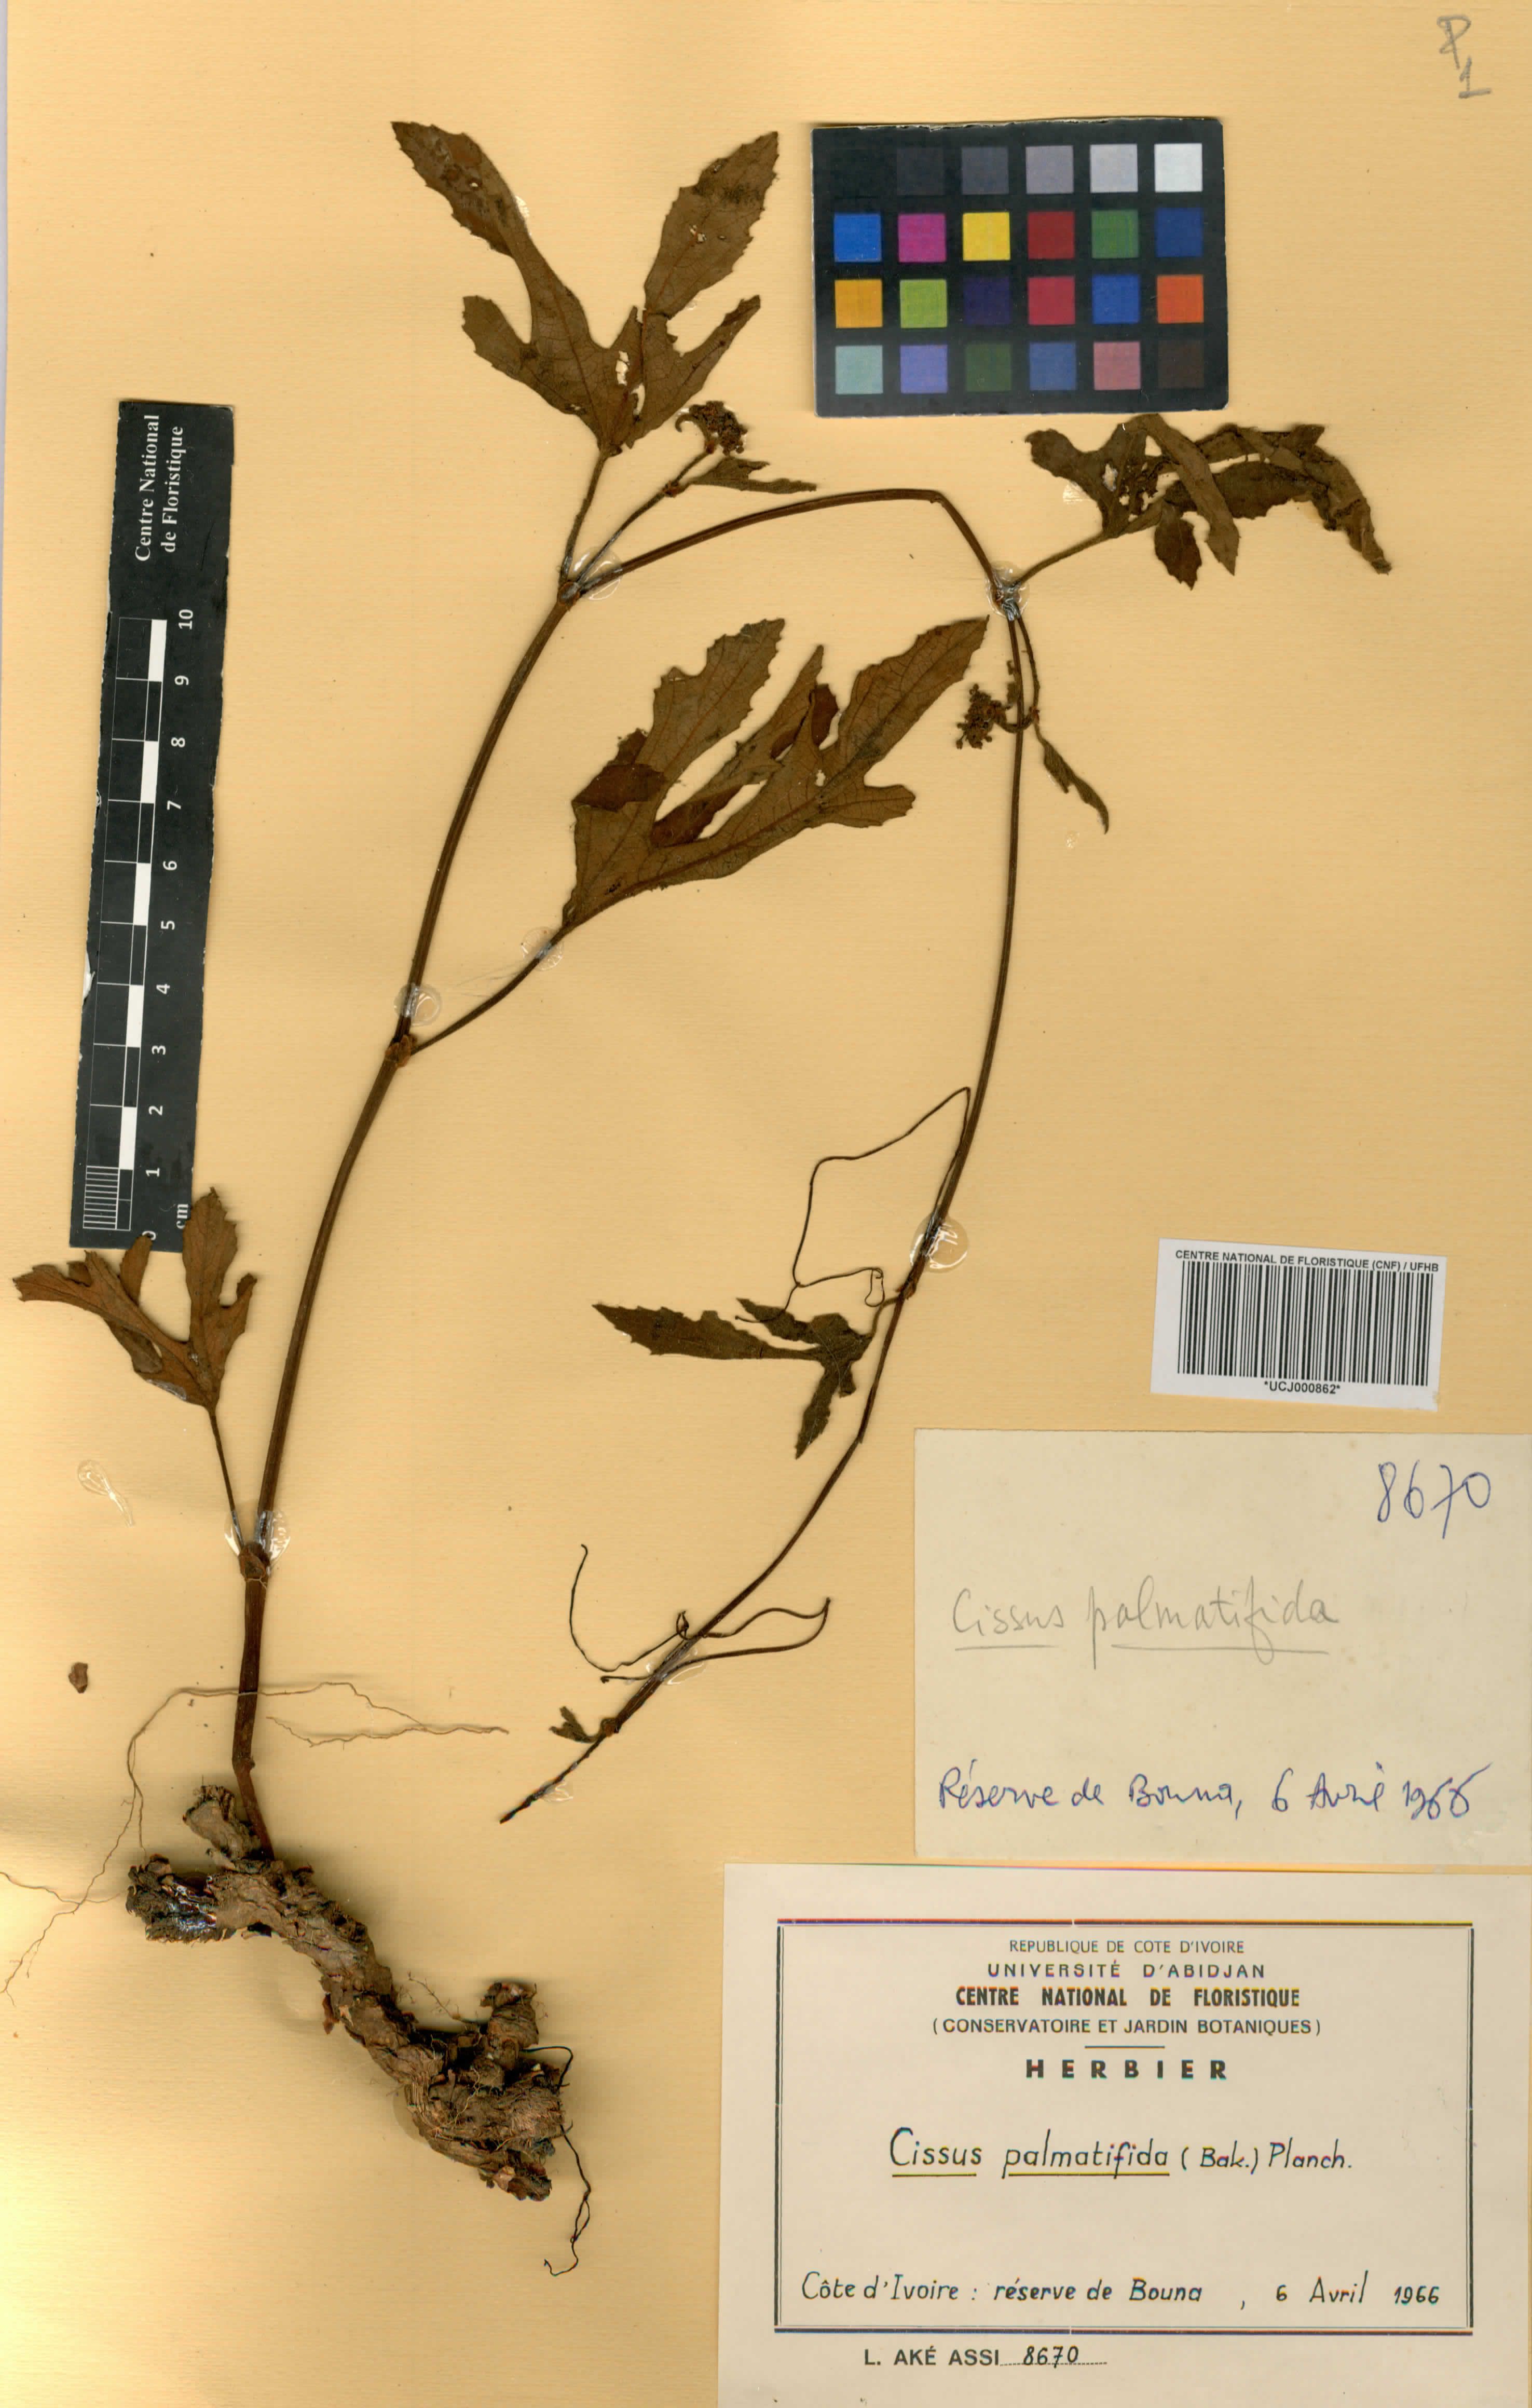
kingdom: Plantae
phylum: Tracheophyta
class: Magnoliopsida
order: Vitales
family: Vitaceae
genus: Cissus
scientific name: Cissus palmatifida
